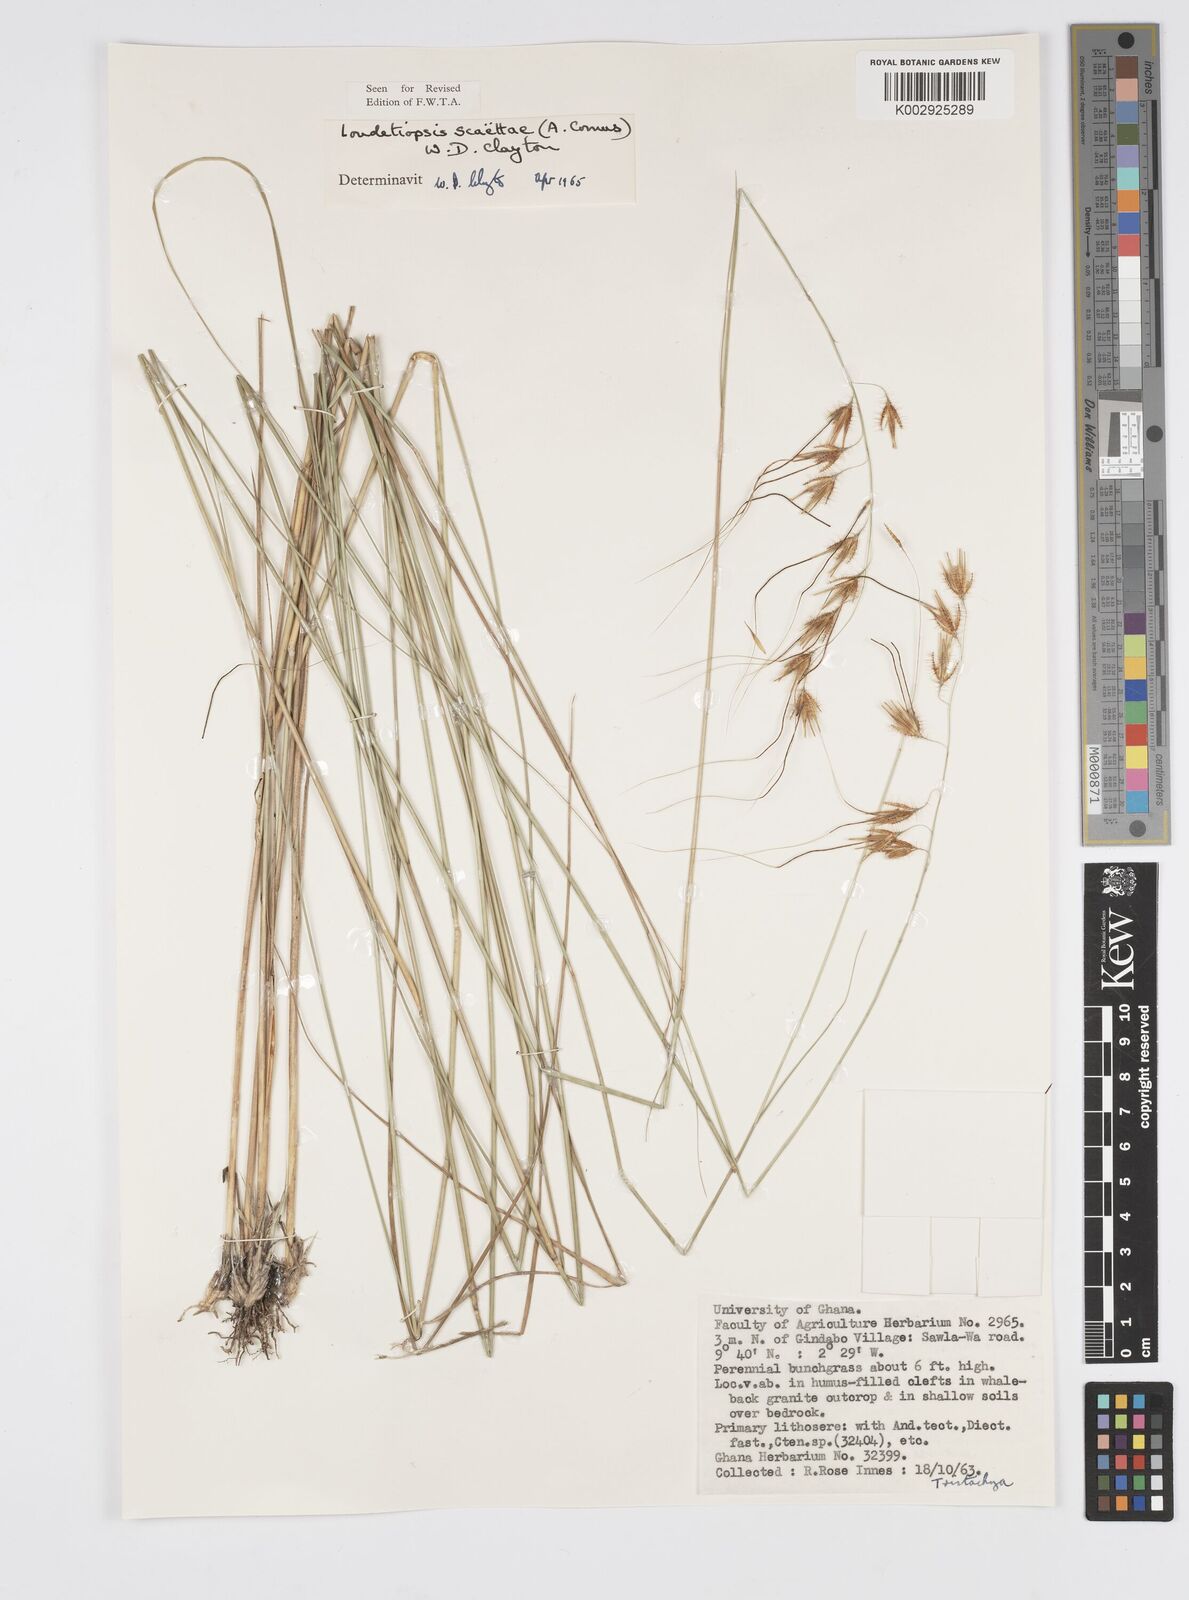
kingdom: Plantae
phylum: Tracheophyta
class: Liliopsida
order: Poales
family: Poaceae
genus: Loudetiopsis
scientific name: Loudetiopsis scaettae
